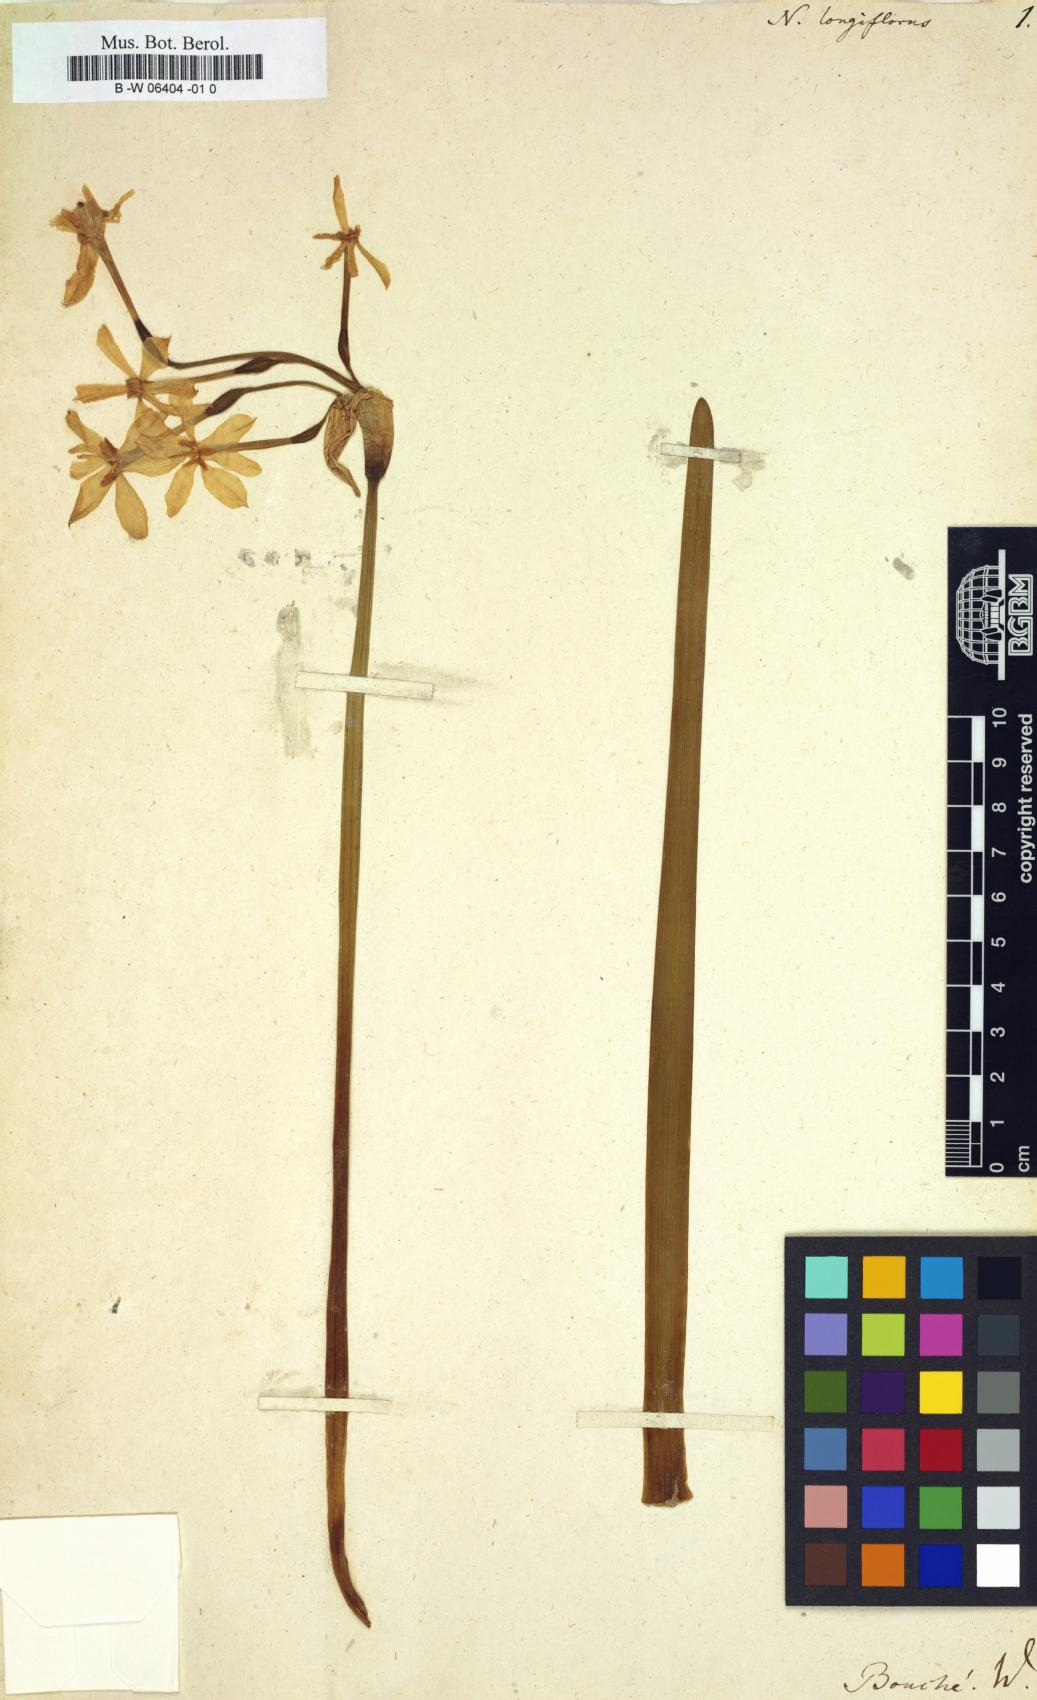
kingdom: Plantae
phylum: Tracheophyta
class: Liliopsida
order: Asparagales
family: Amaryllidaceae
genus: Narcissus
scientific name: Narcissus compressus
